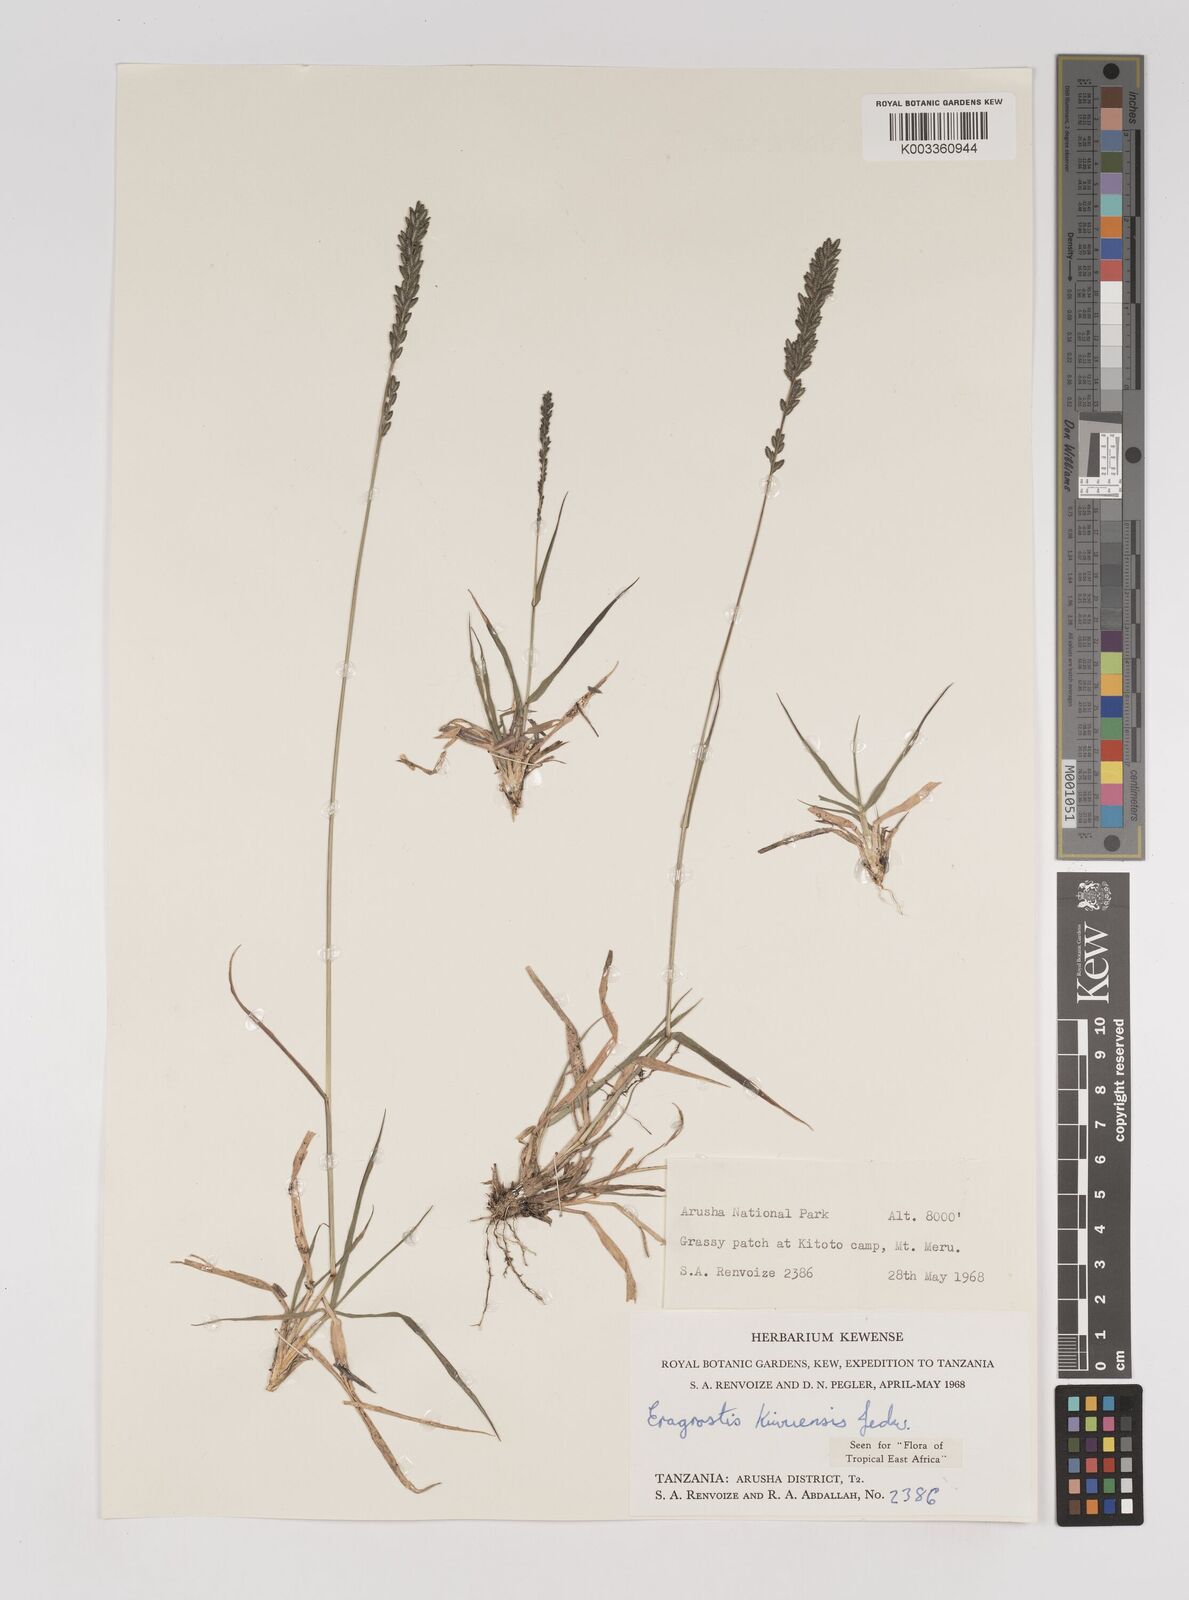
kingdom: Plantae
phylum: Tracheophyta
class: Liliopsida
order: Poales
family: Poaceae
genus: Eragrostis
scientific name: Eragrostis schweinfurthii
